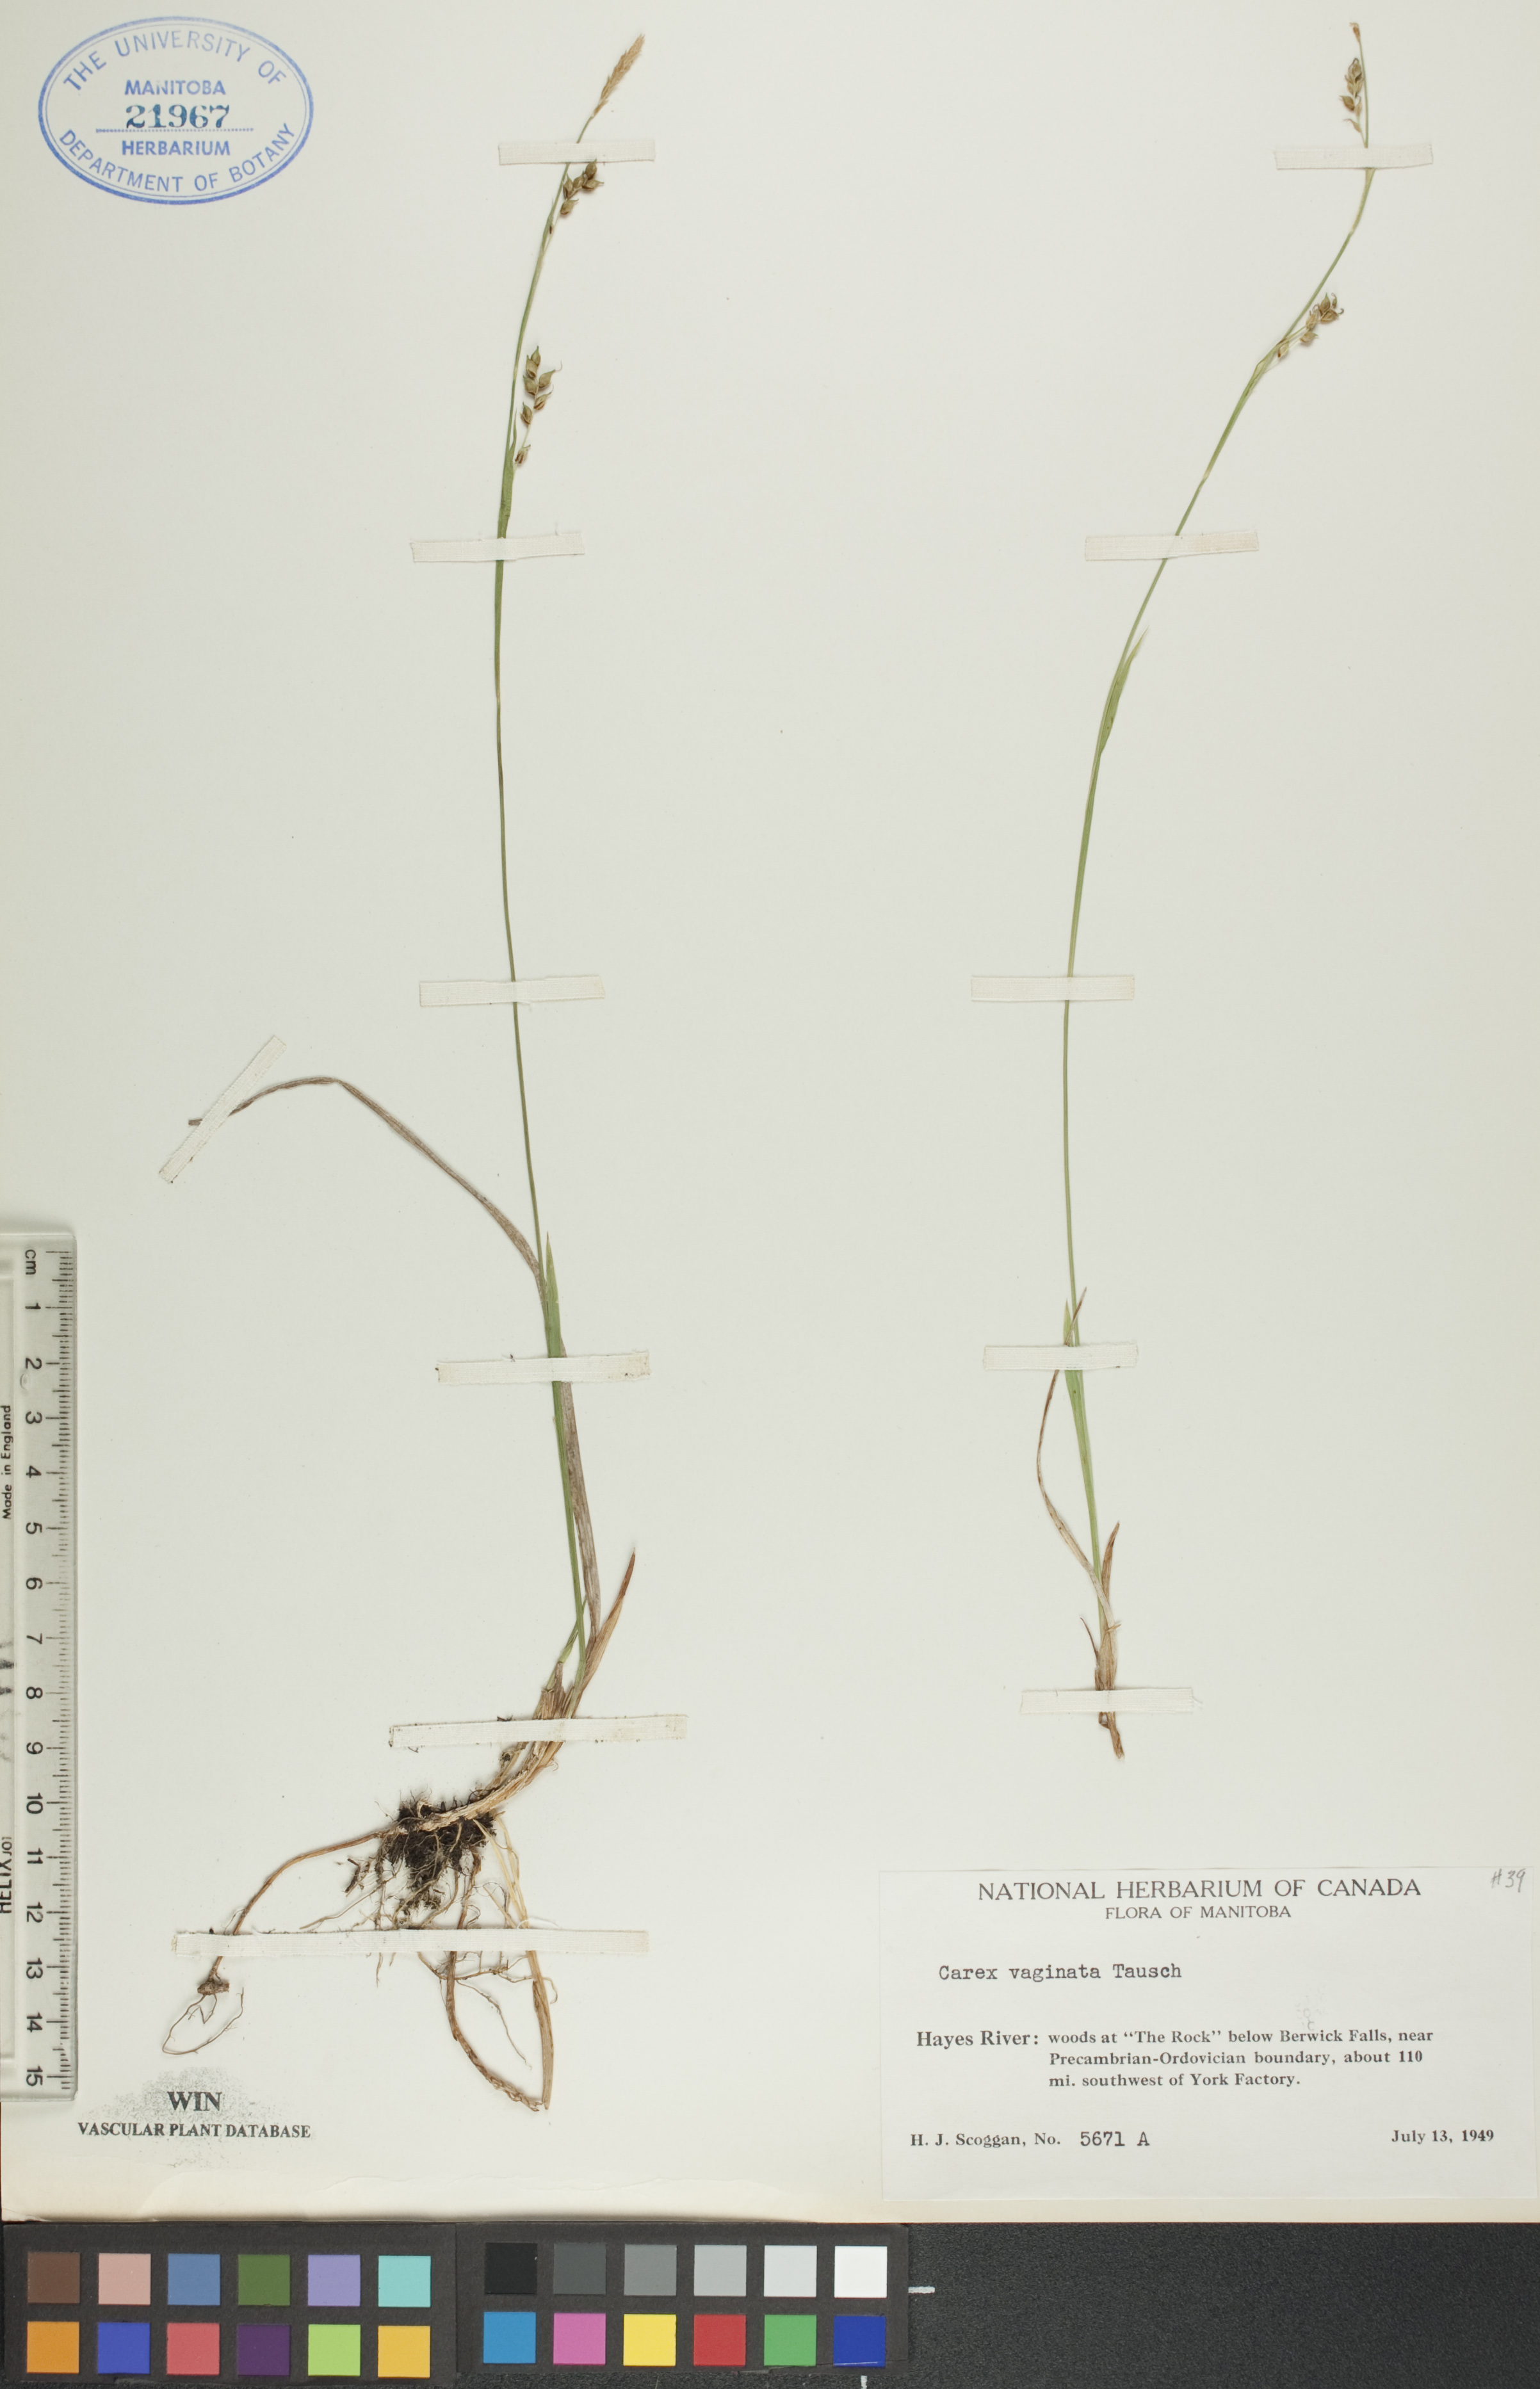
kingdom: Plantae
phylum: Tracheophyta
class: Liliopsida
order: Poales
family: Cyperaceae
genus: Carex
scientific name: Carex vaginata
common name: Sheathed sedge
